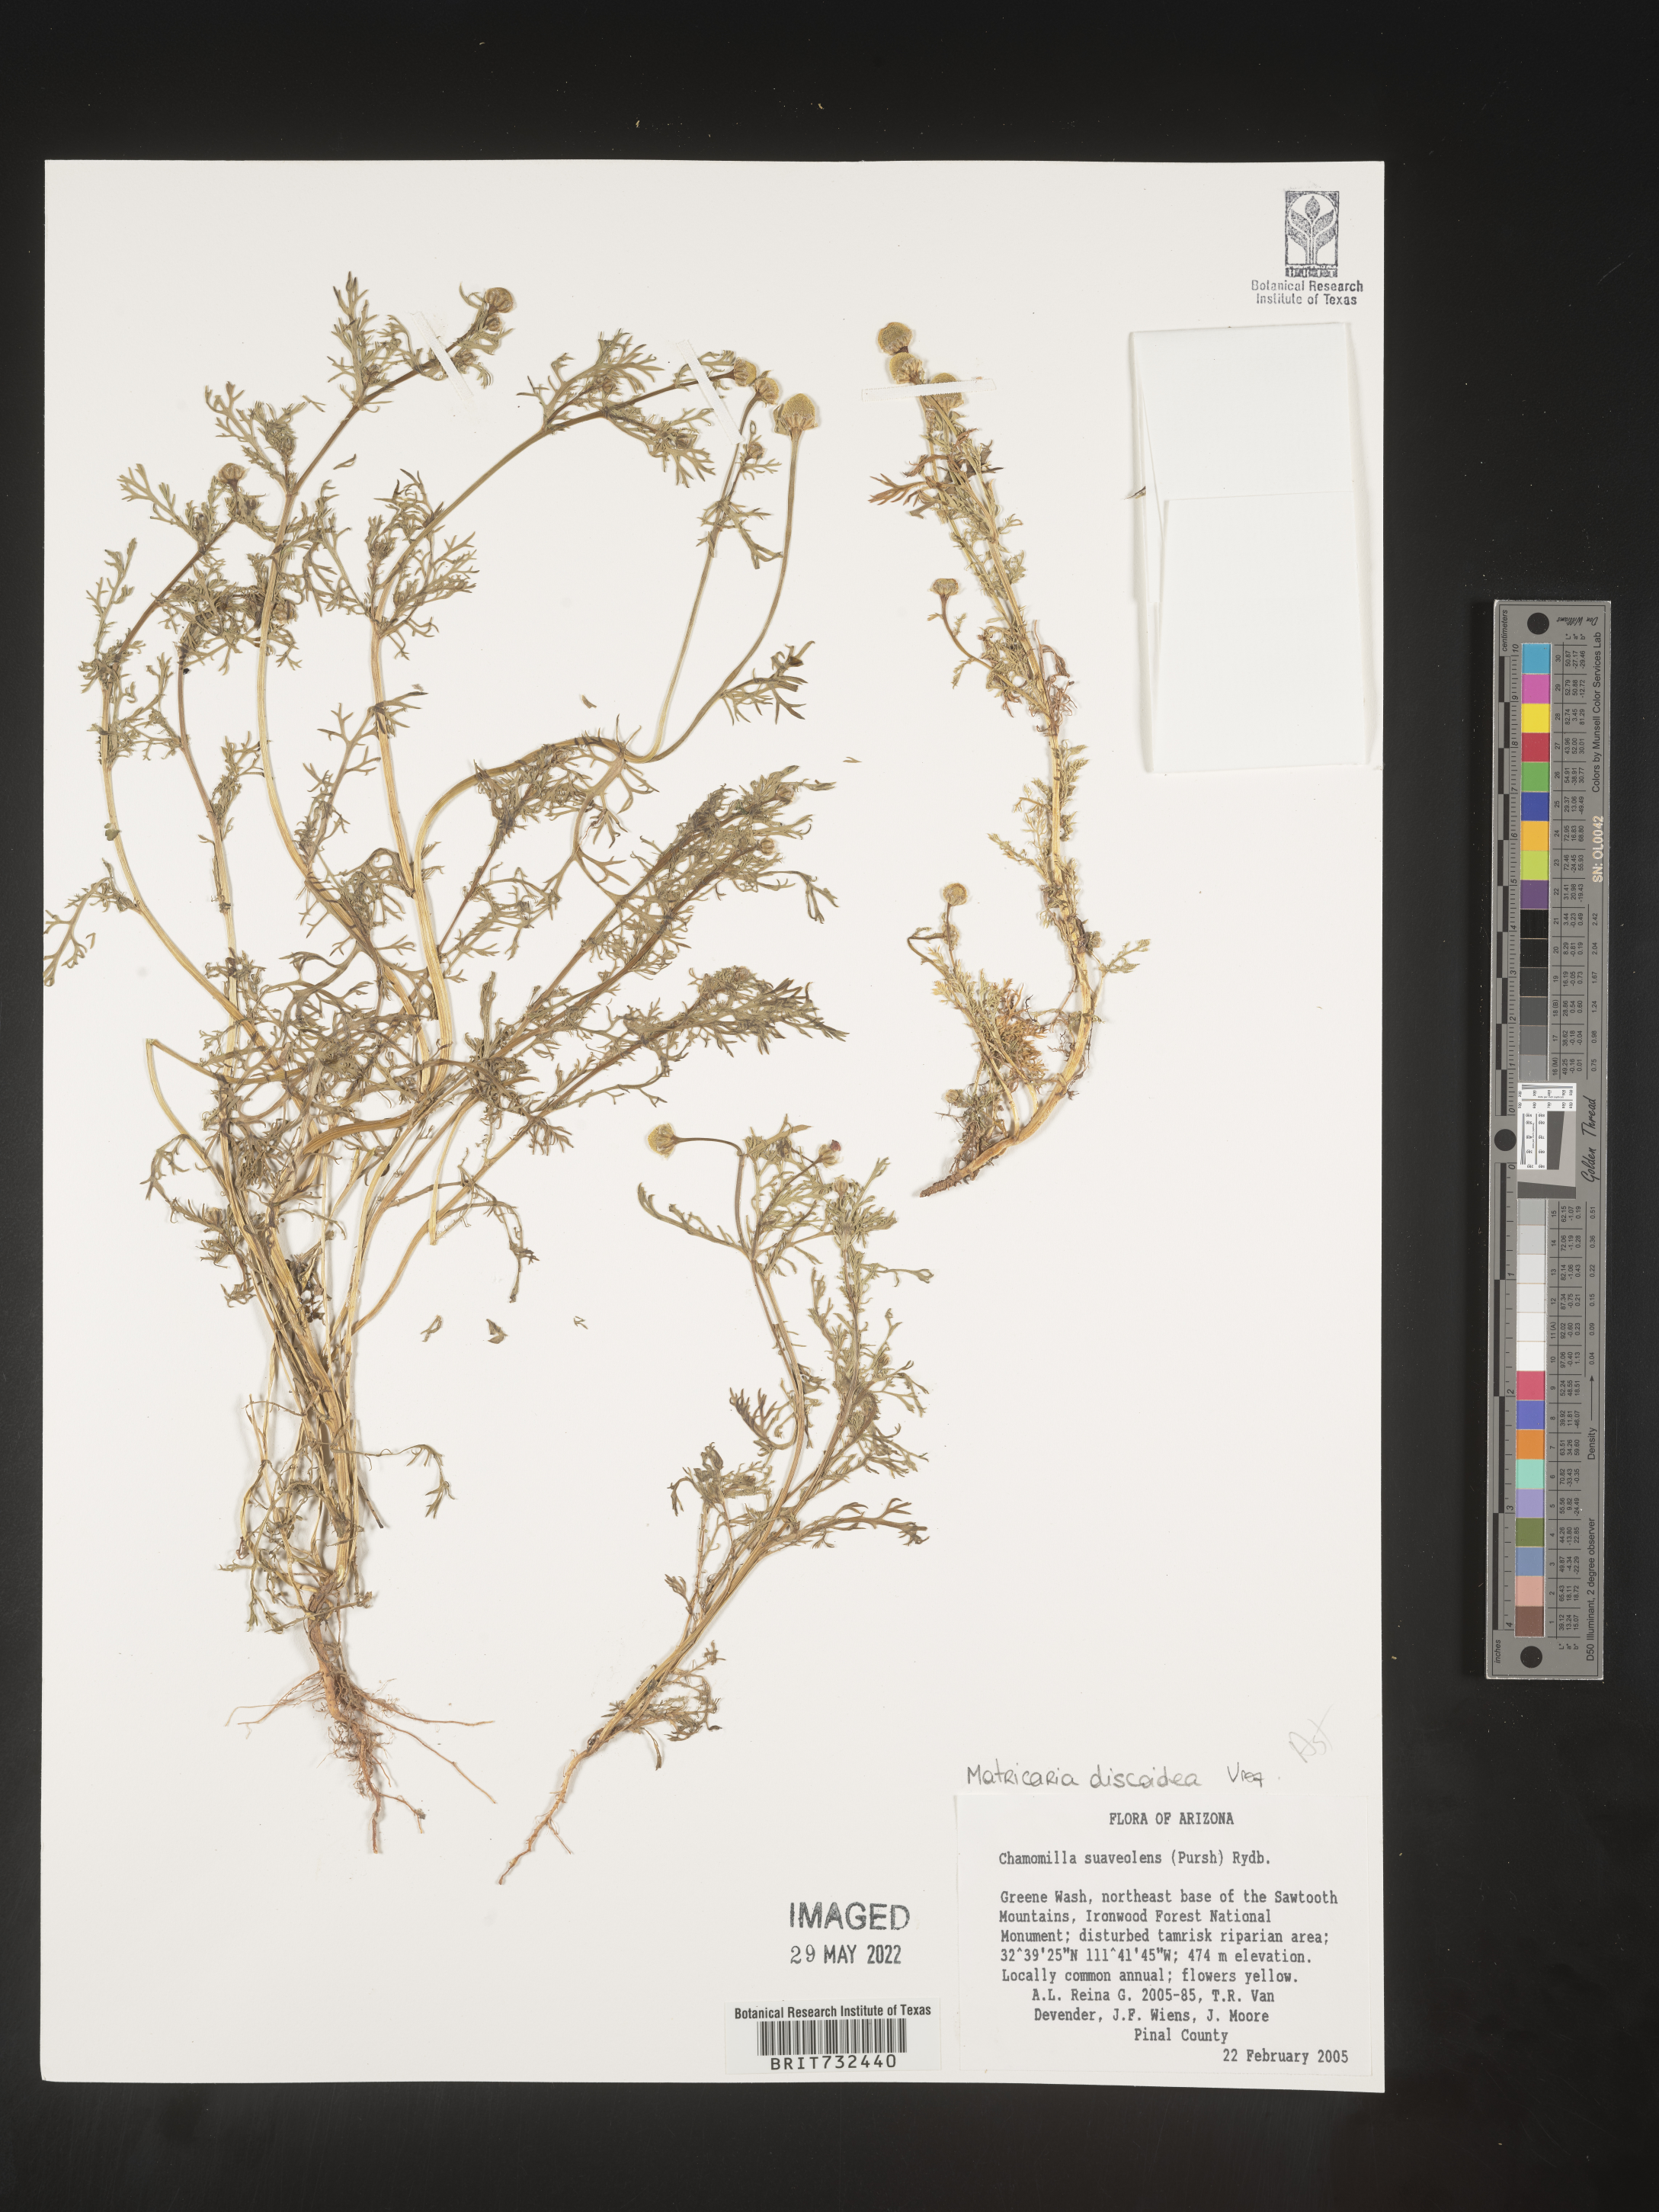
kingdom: Plantae
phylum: Tracheophyta
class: Magnoliopsida
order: Asterales
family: Asteraceae
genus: Matricaria
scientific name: Matricaria discoidea
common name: Disc mayweed
